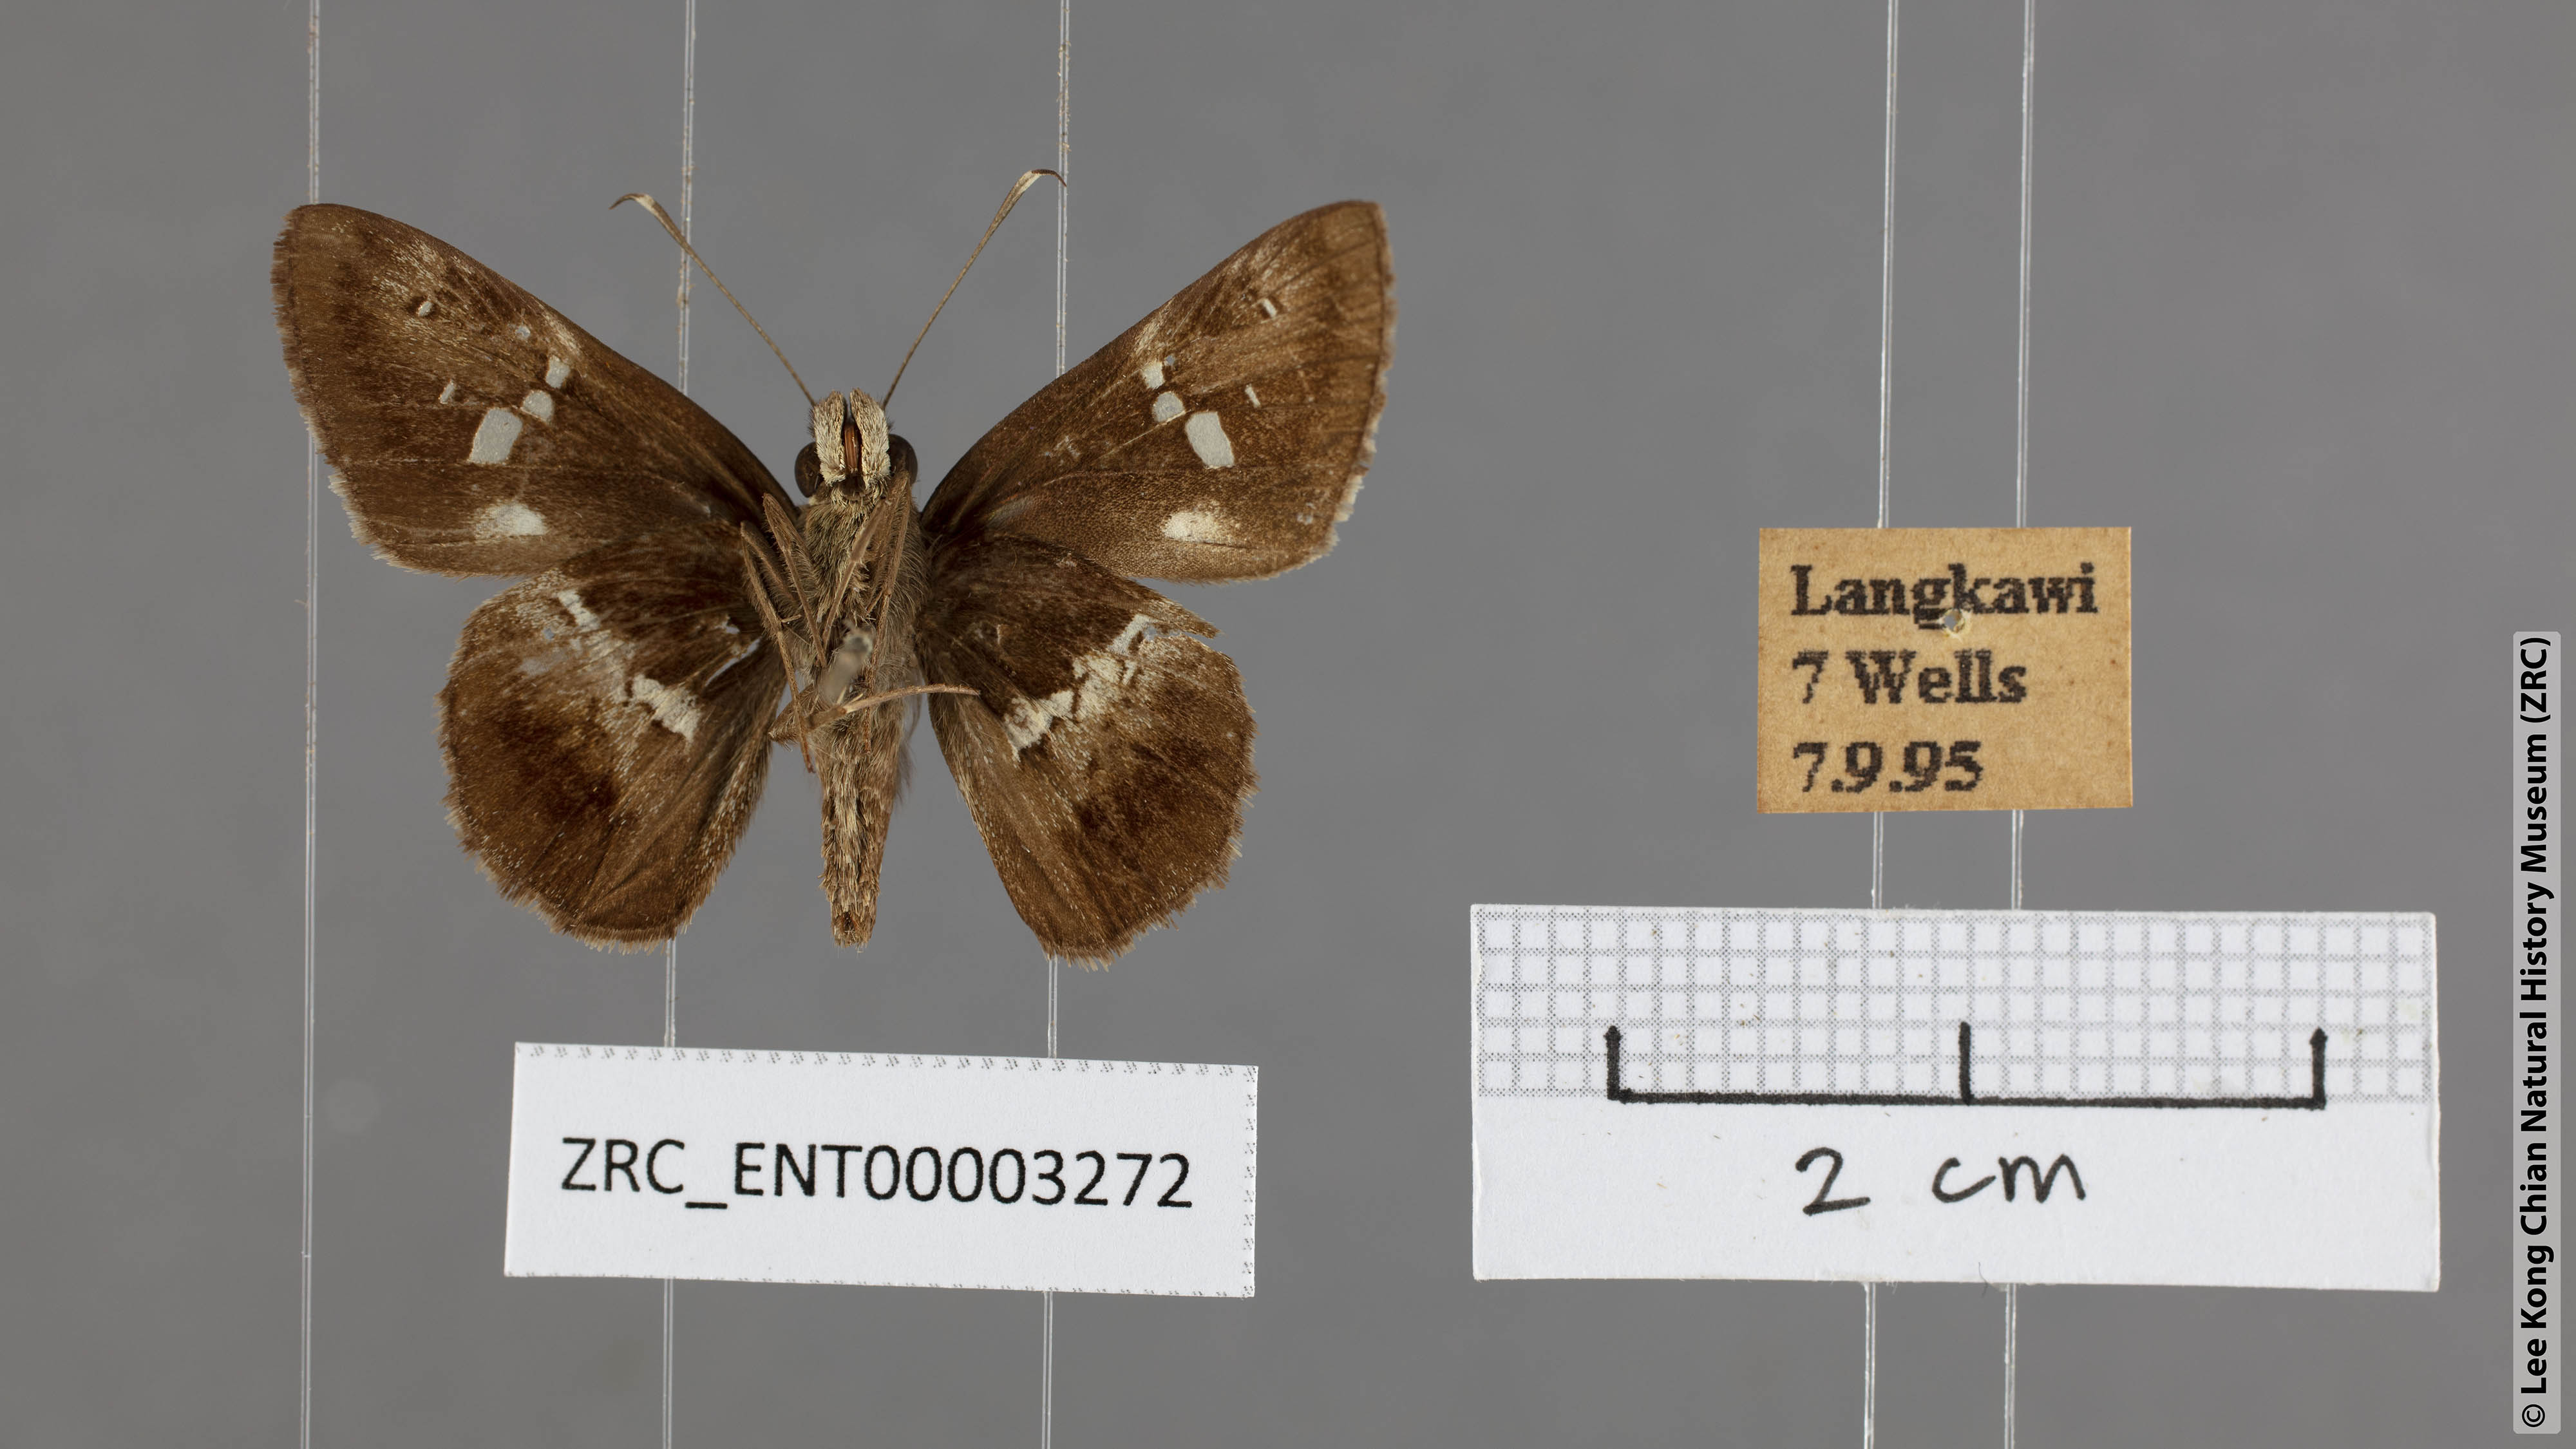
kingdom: Animalia
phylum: Arthropoda
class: Insecta
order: Lepidoptera
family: Hesperiidae
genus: Hyarotis
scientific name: Hyarotis adrastus
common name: Tree flitter
